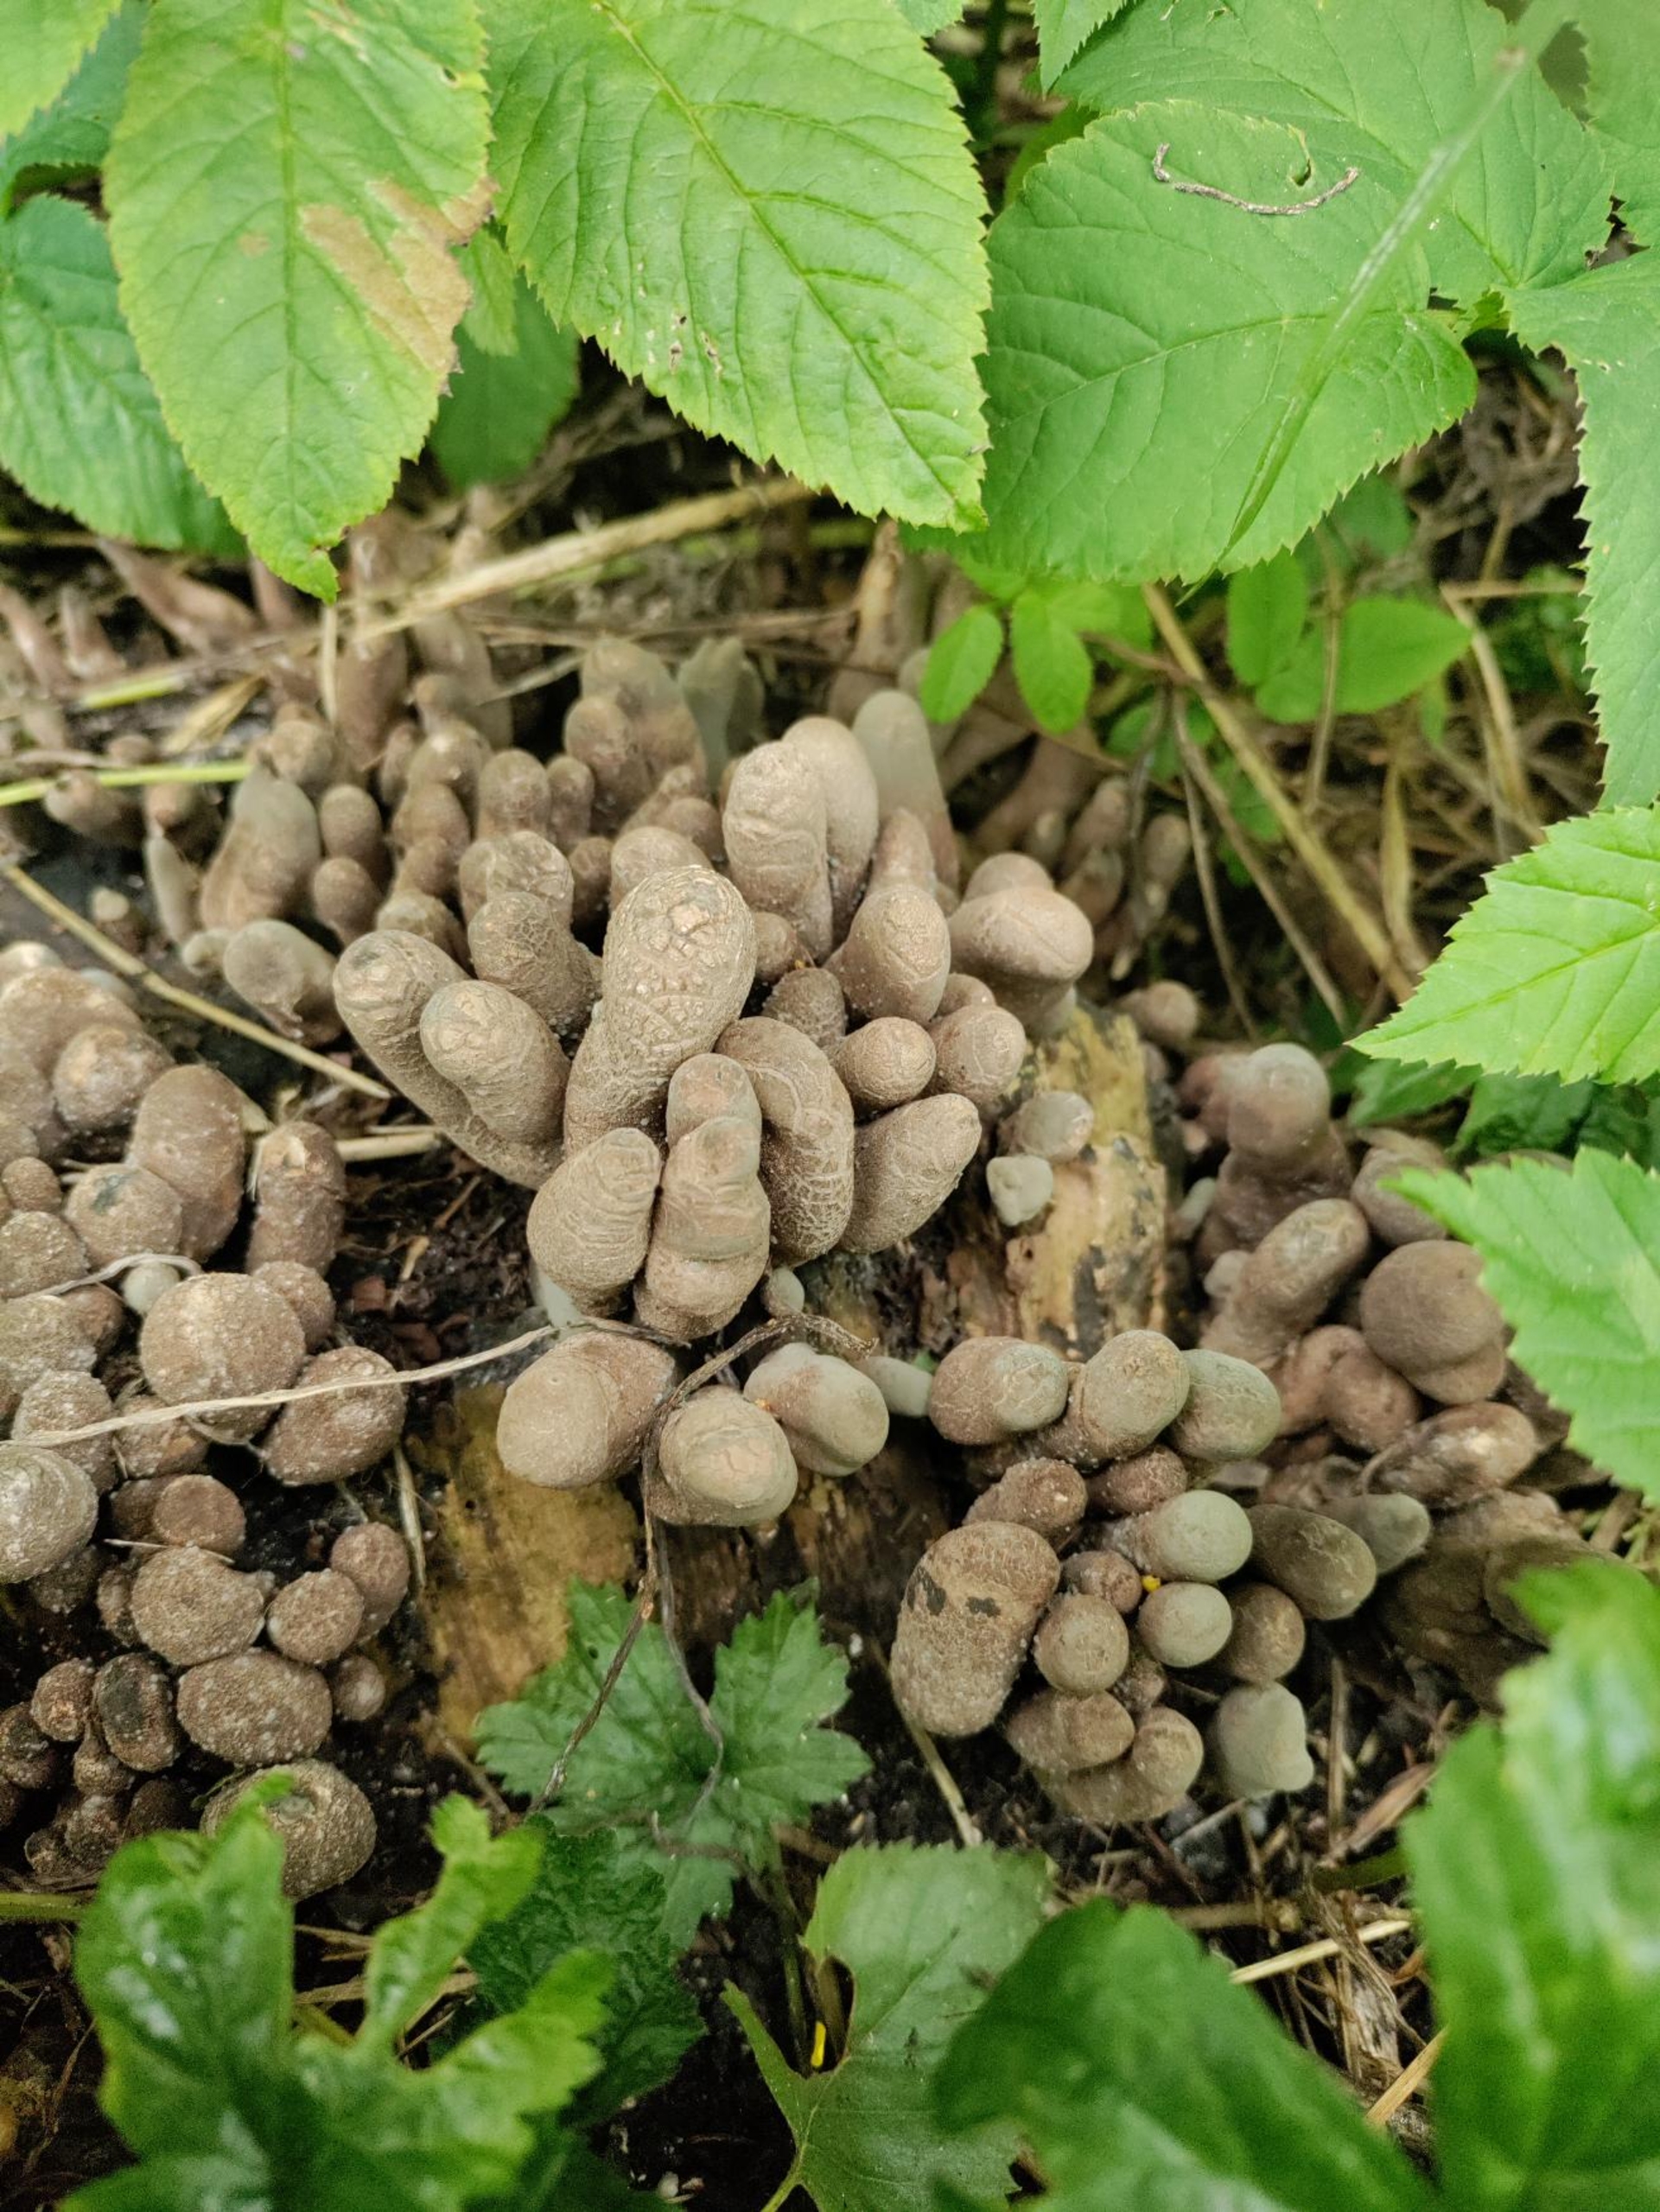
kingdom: Fungi
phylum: Ascomycota
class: Sordariomycetes
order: Xylariales
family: Xylariaceae
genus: Xylaria
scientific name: Xylaria polymorpha
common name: Kølle-stødsvamp
